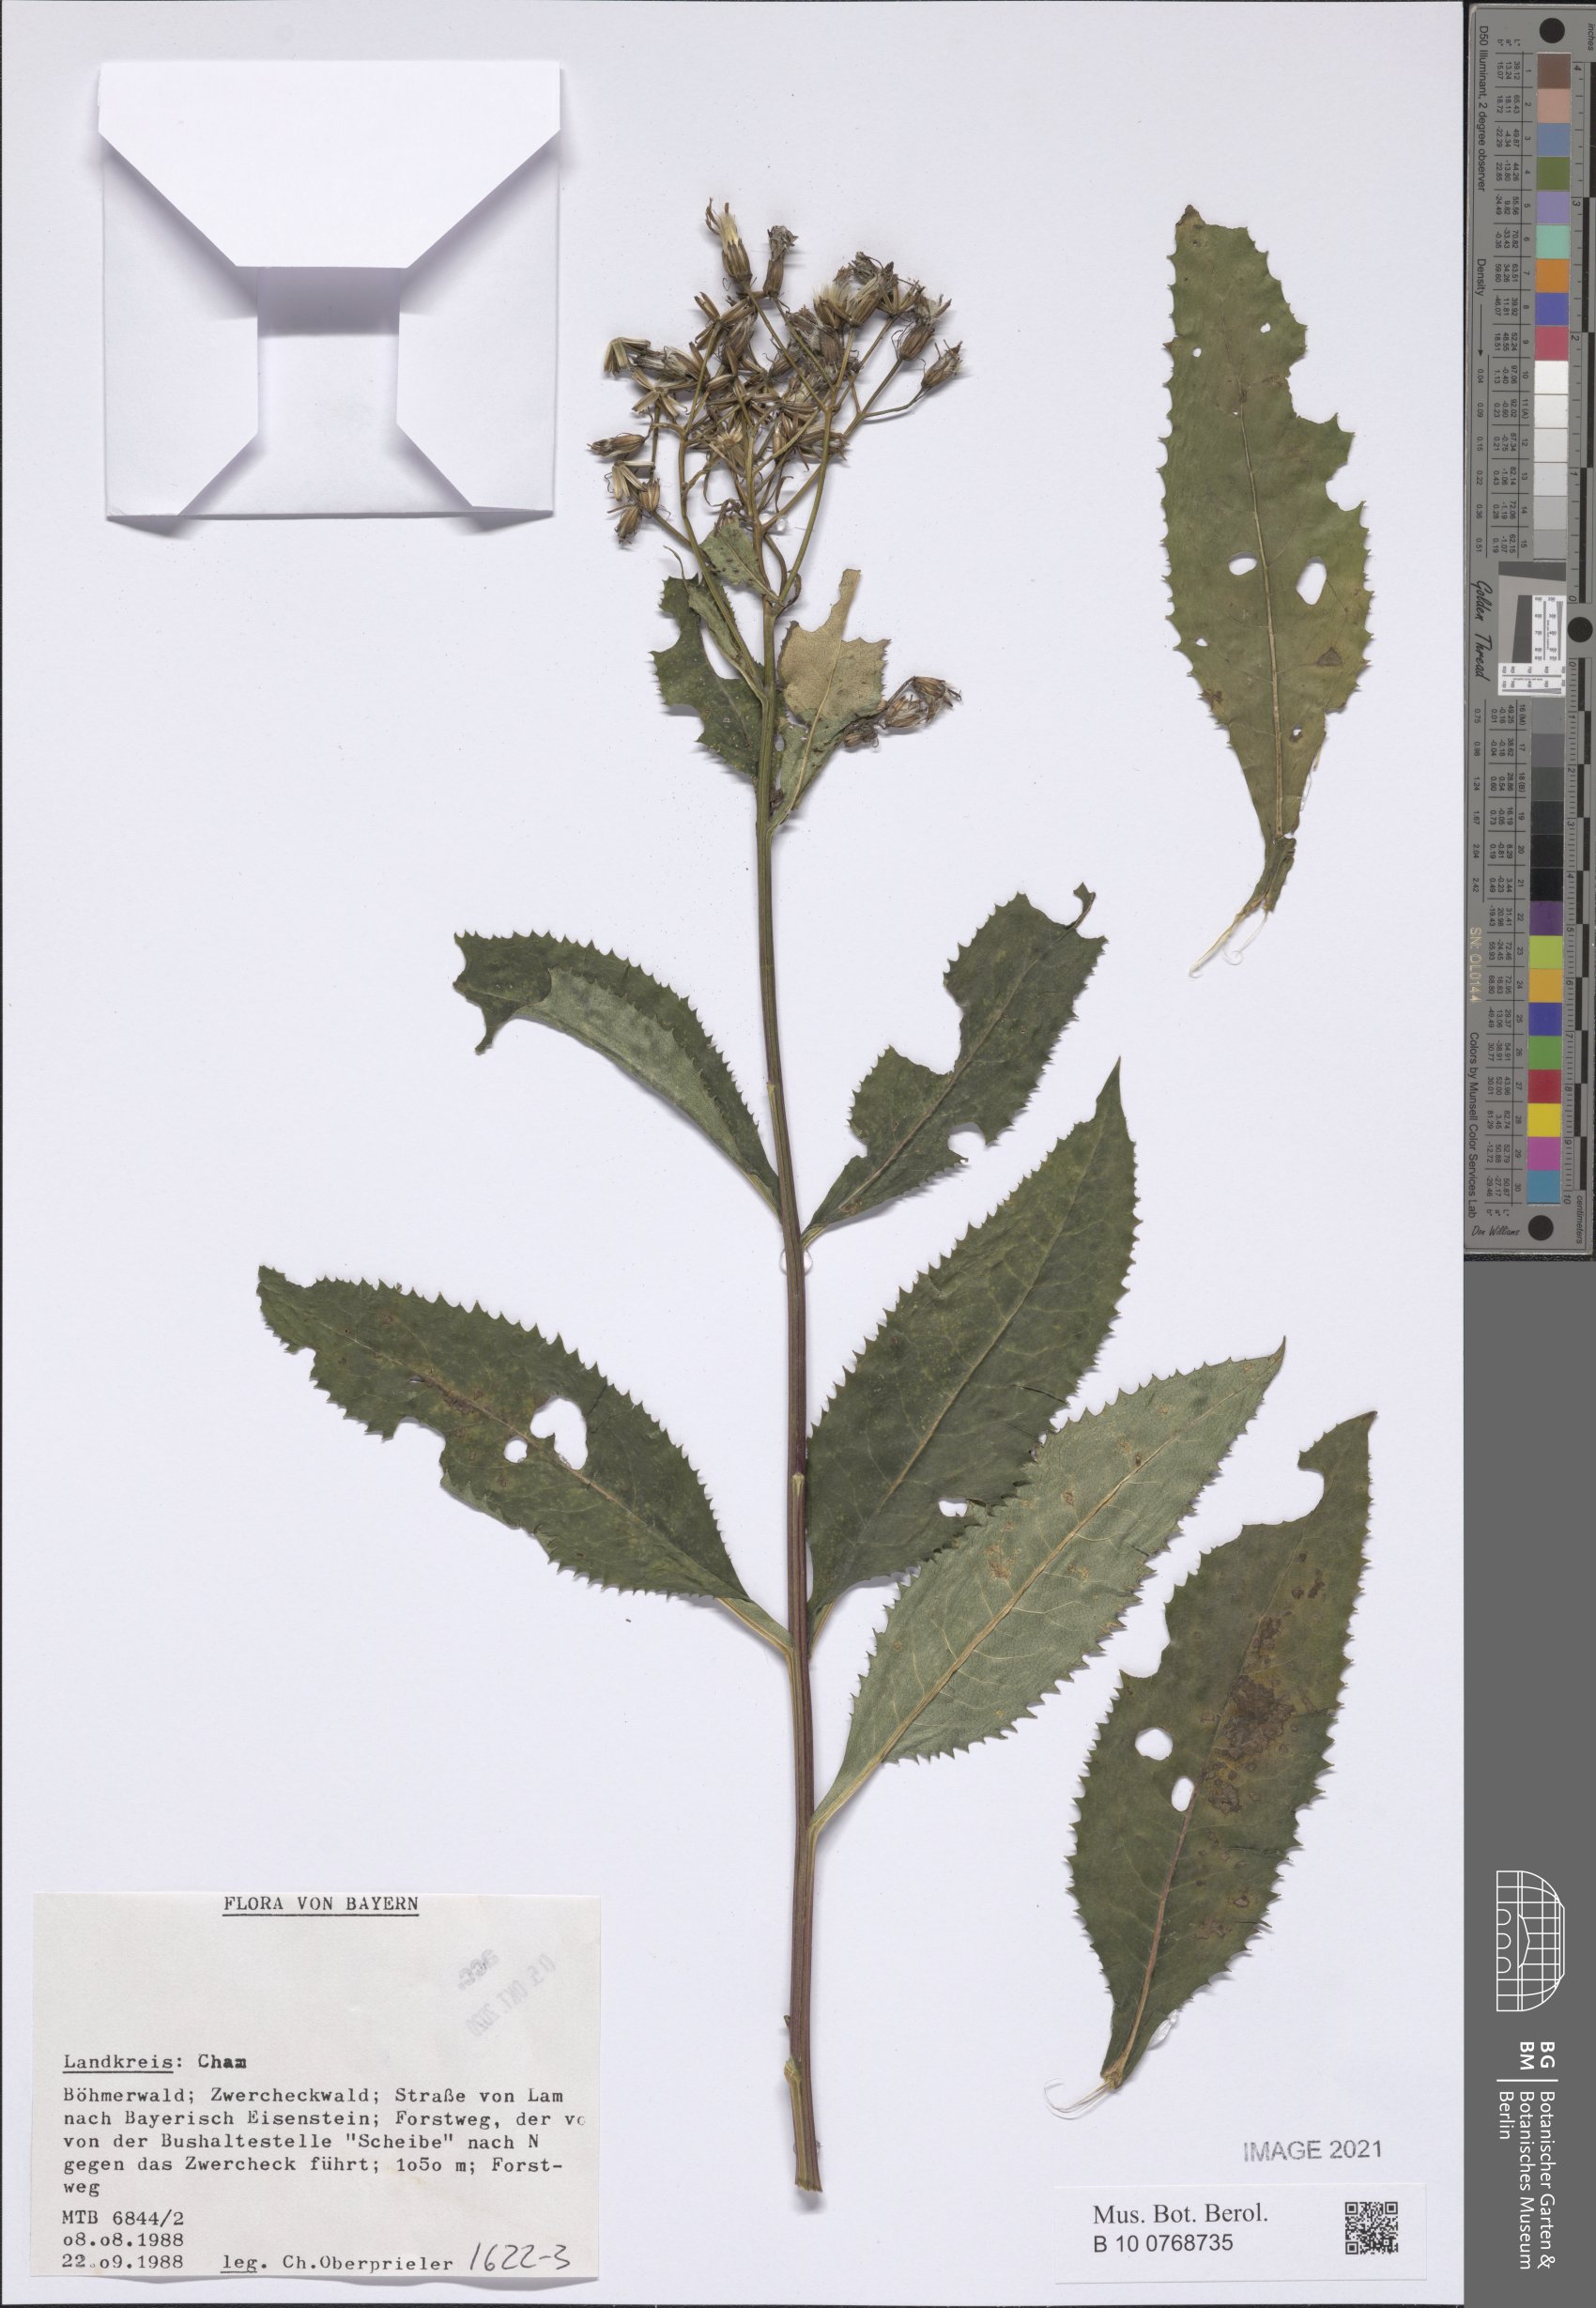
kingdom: Plantae
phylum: Tracheophyta
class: Magnoliopsida
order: Asterales
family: Asteraceae
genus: Senecio
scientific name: Senecio
